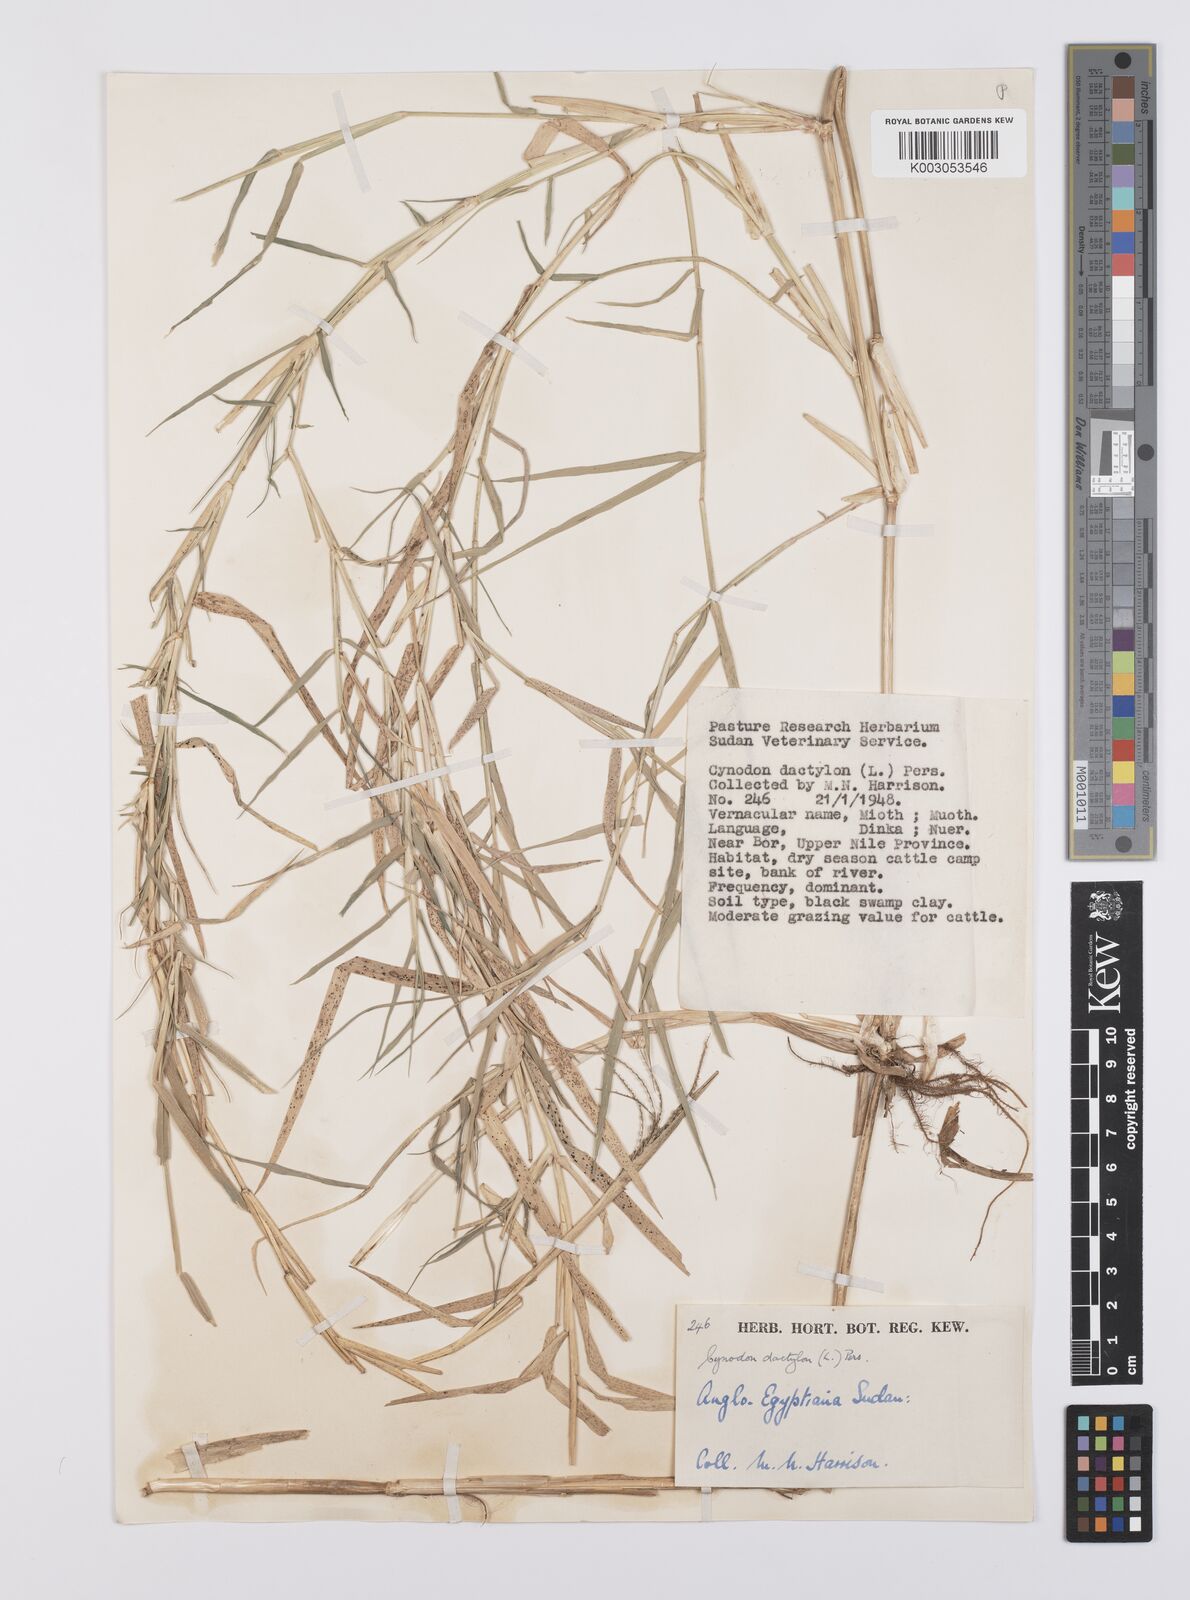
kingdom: Plantae
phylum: Tracheophyta
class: Liliopsida
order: Poales
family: Poaceae
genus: Cynodon
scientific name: Cynodon dactylon
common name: Bermuda grass
